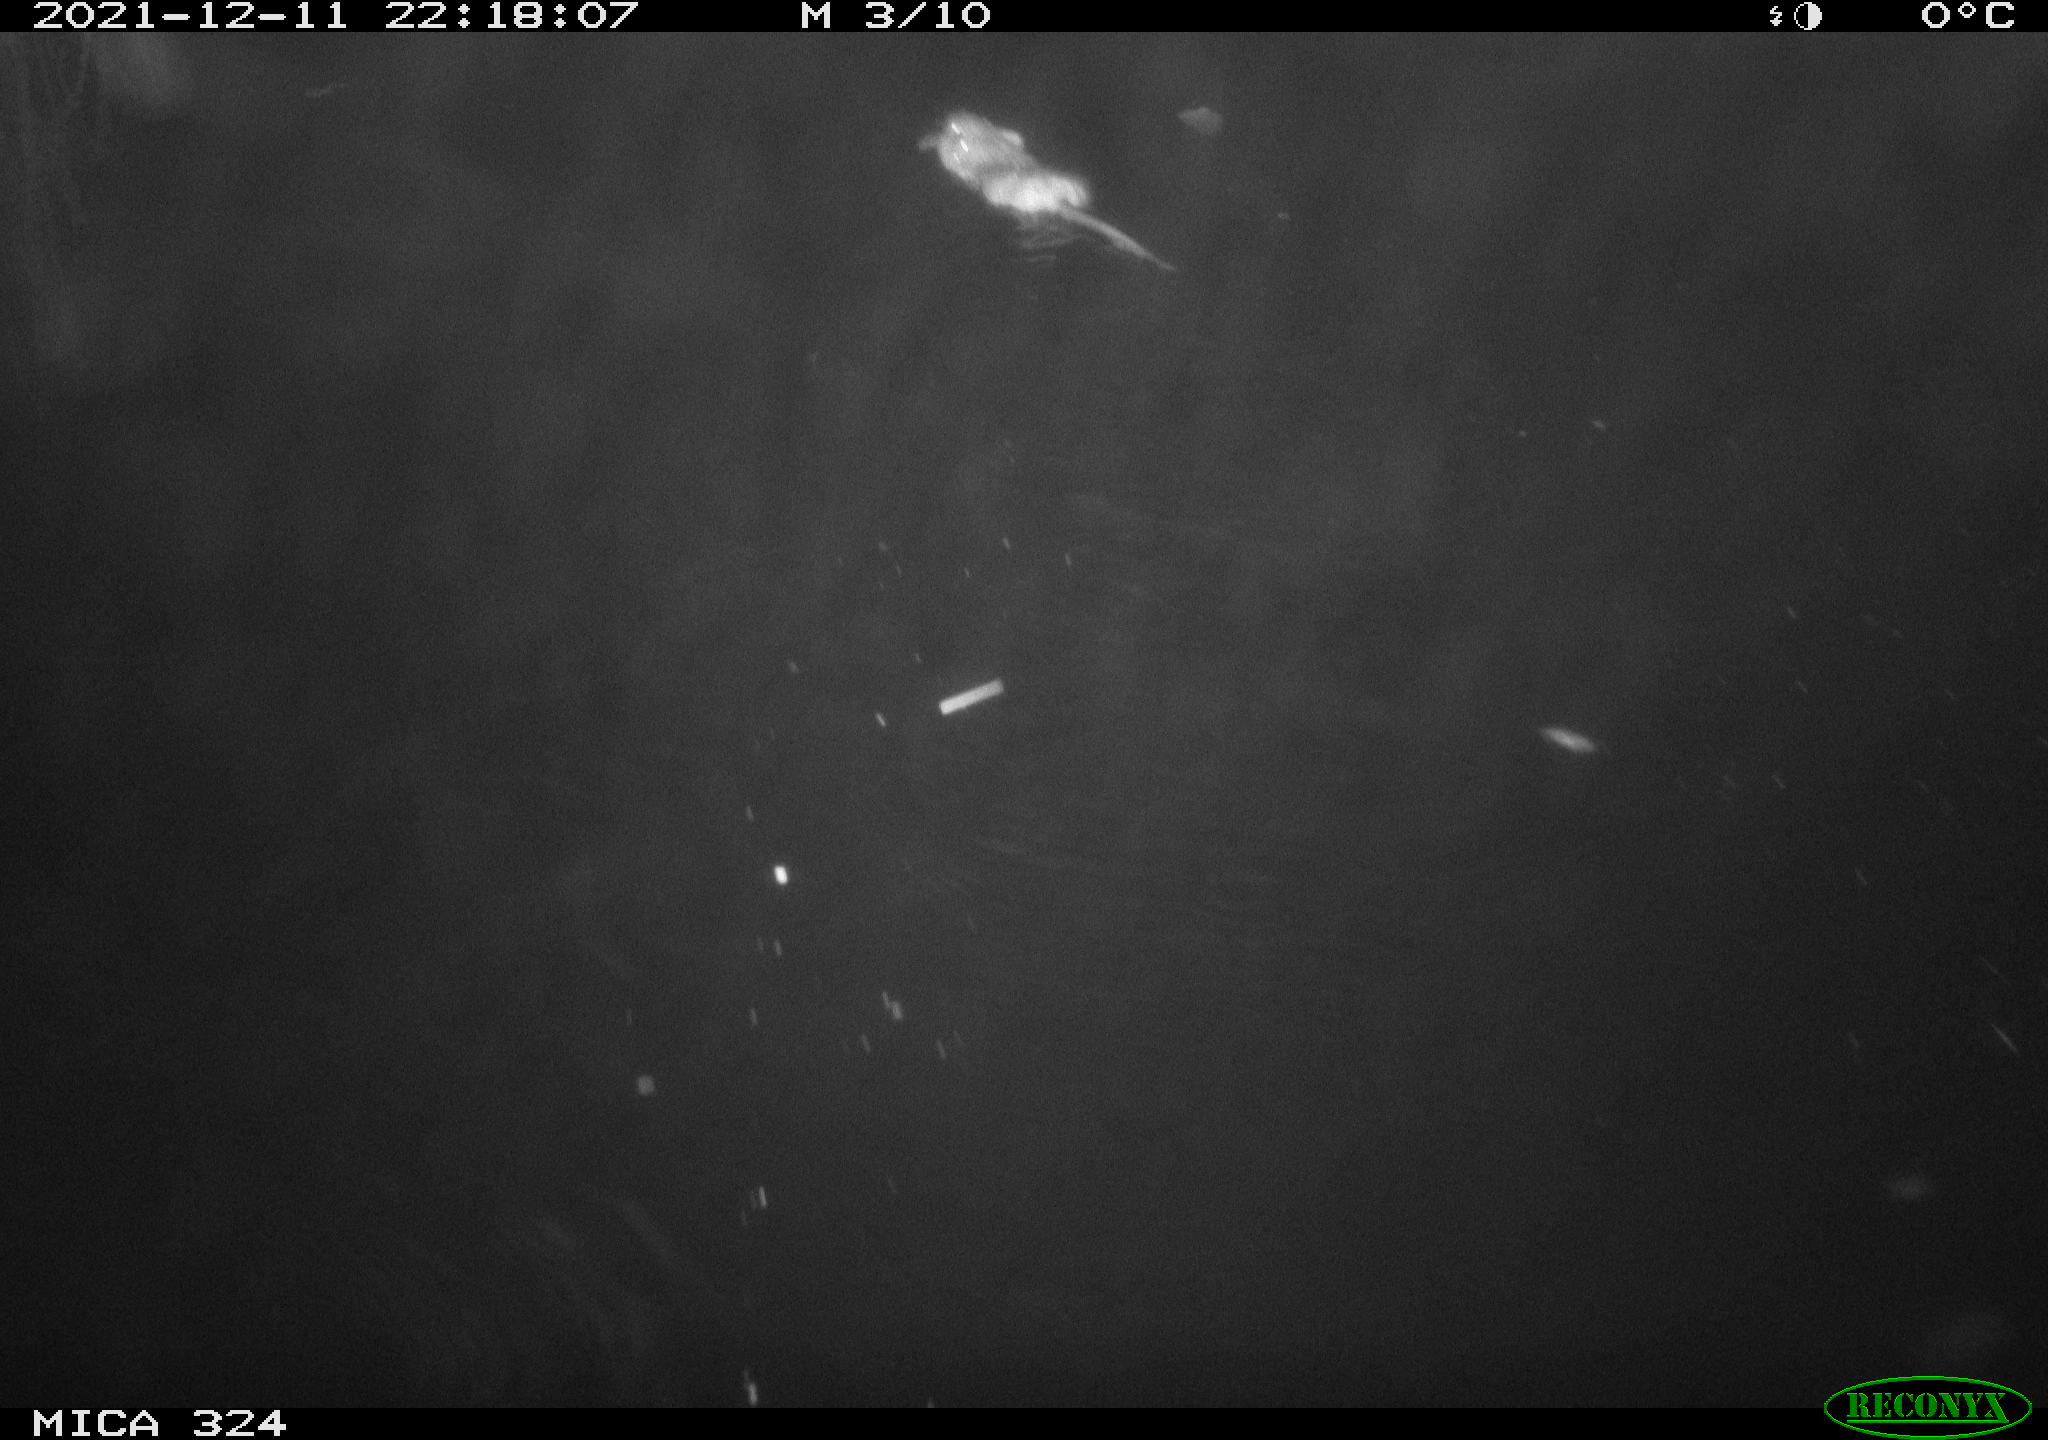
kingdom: Animalia
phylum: Chordata
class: Mammalia
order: Rodentia
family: Cricetidae
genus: Ondatra
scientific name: Ondatra zibethicus
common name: Muskrat
